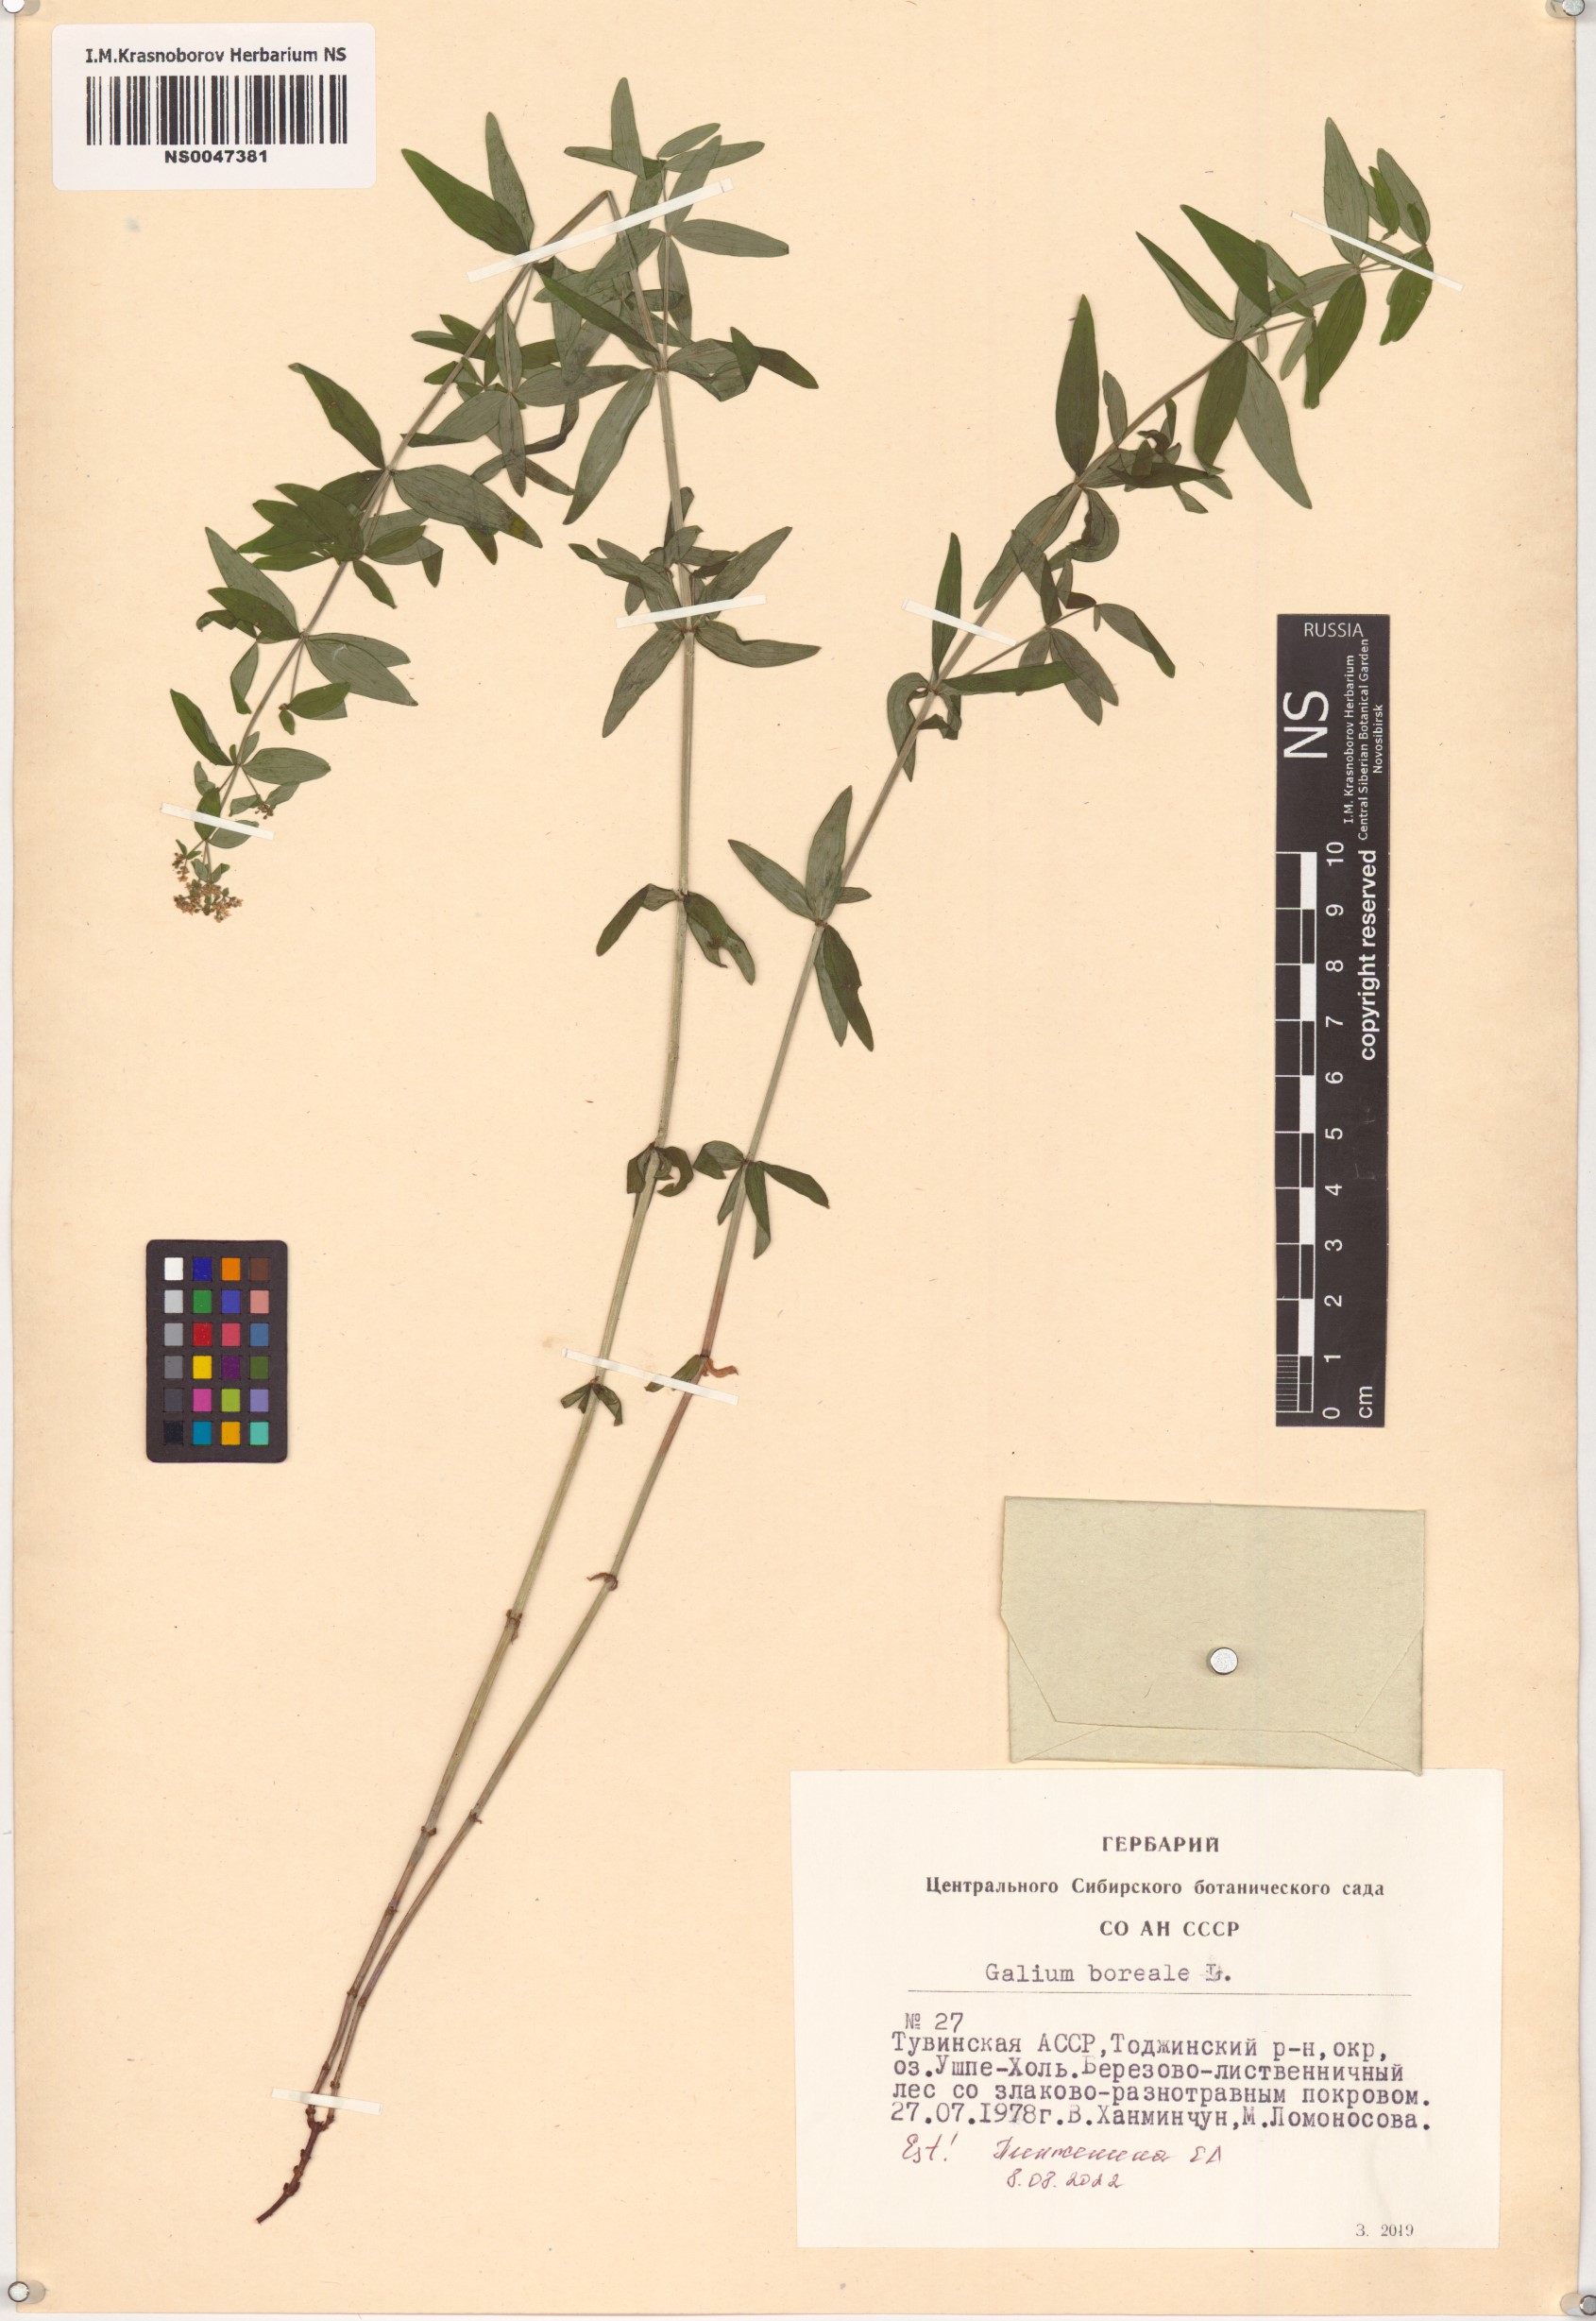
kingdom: Plantae
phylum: Tracheophyta
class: Magnoliopsida
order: Gentianales
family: Rubiaceae
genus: Galium
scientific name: Galium boreale
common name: Northern bedstraw
